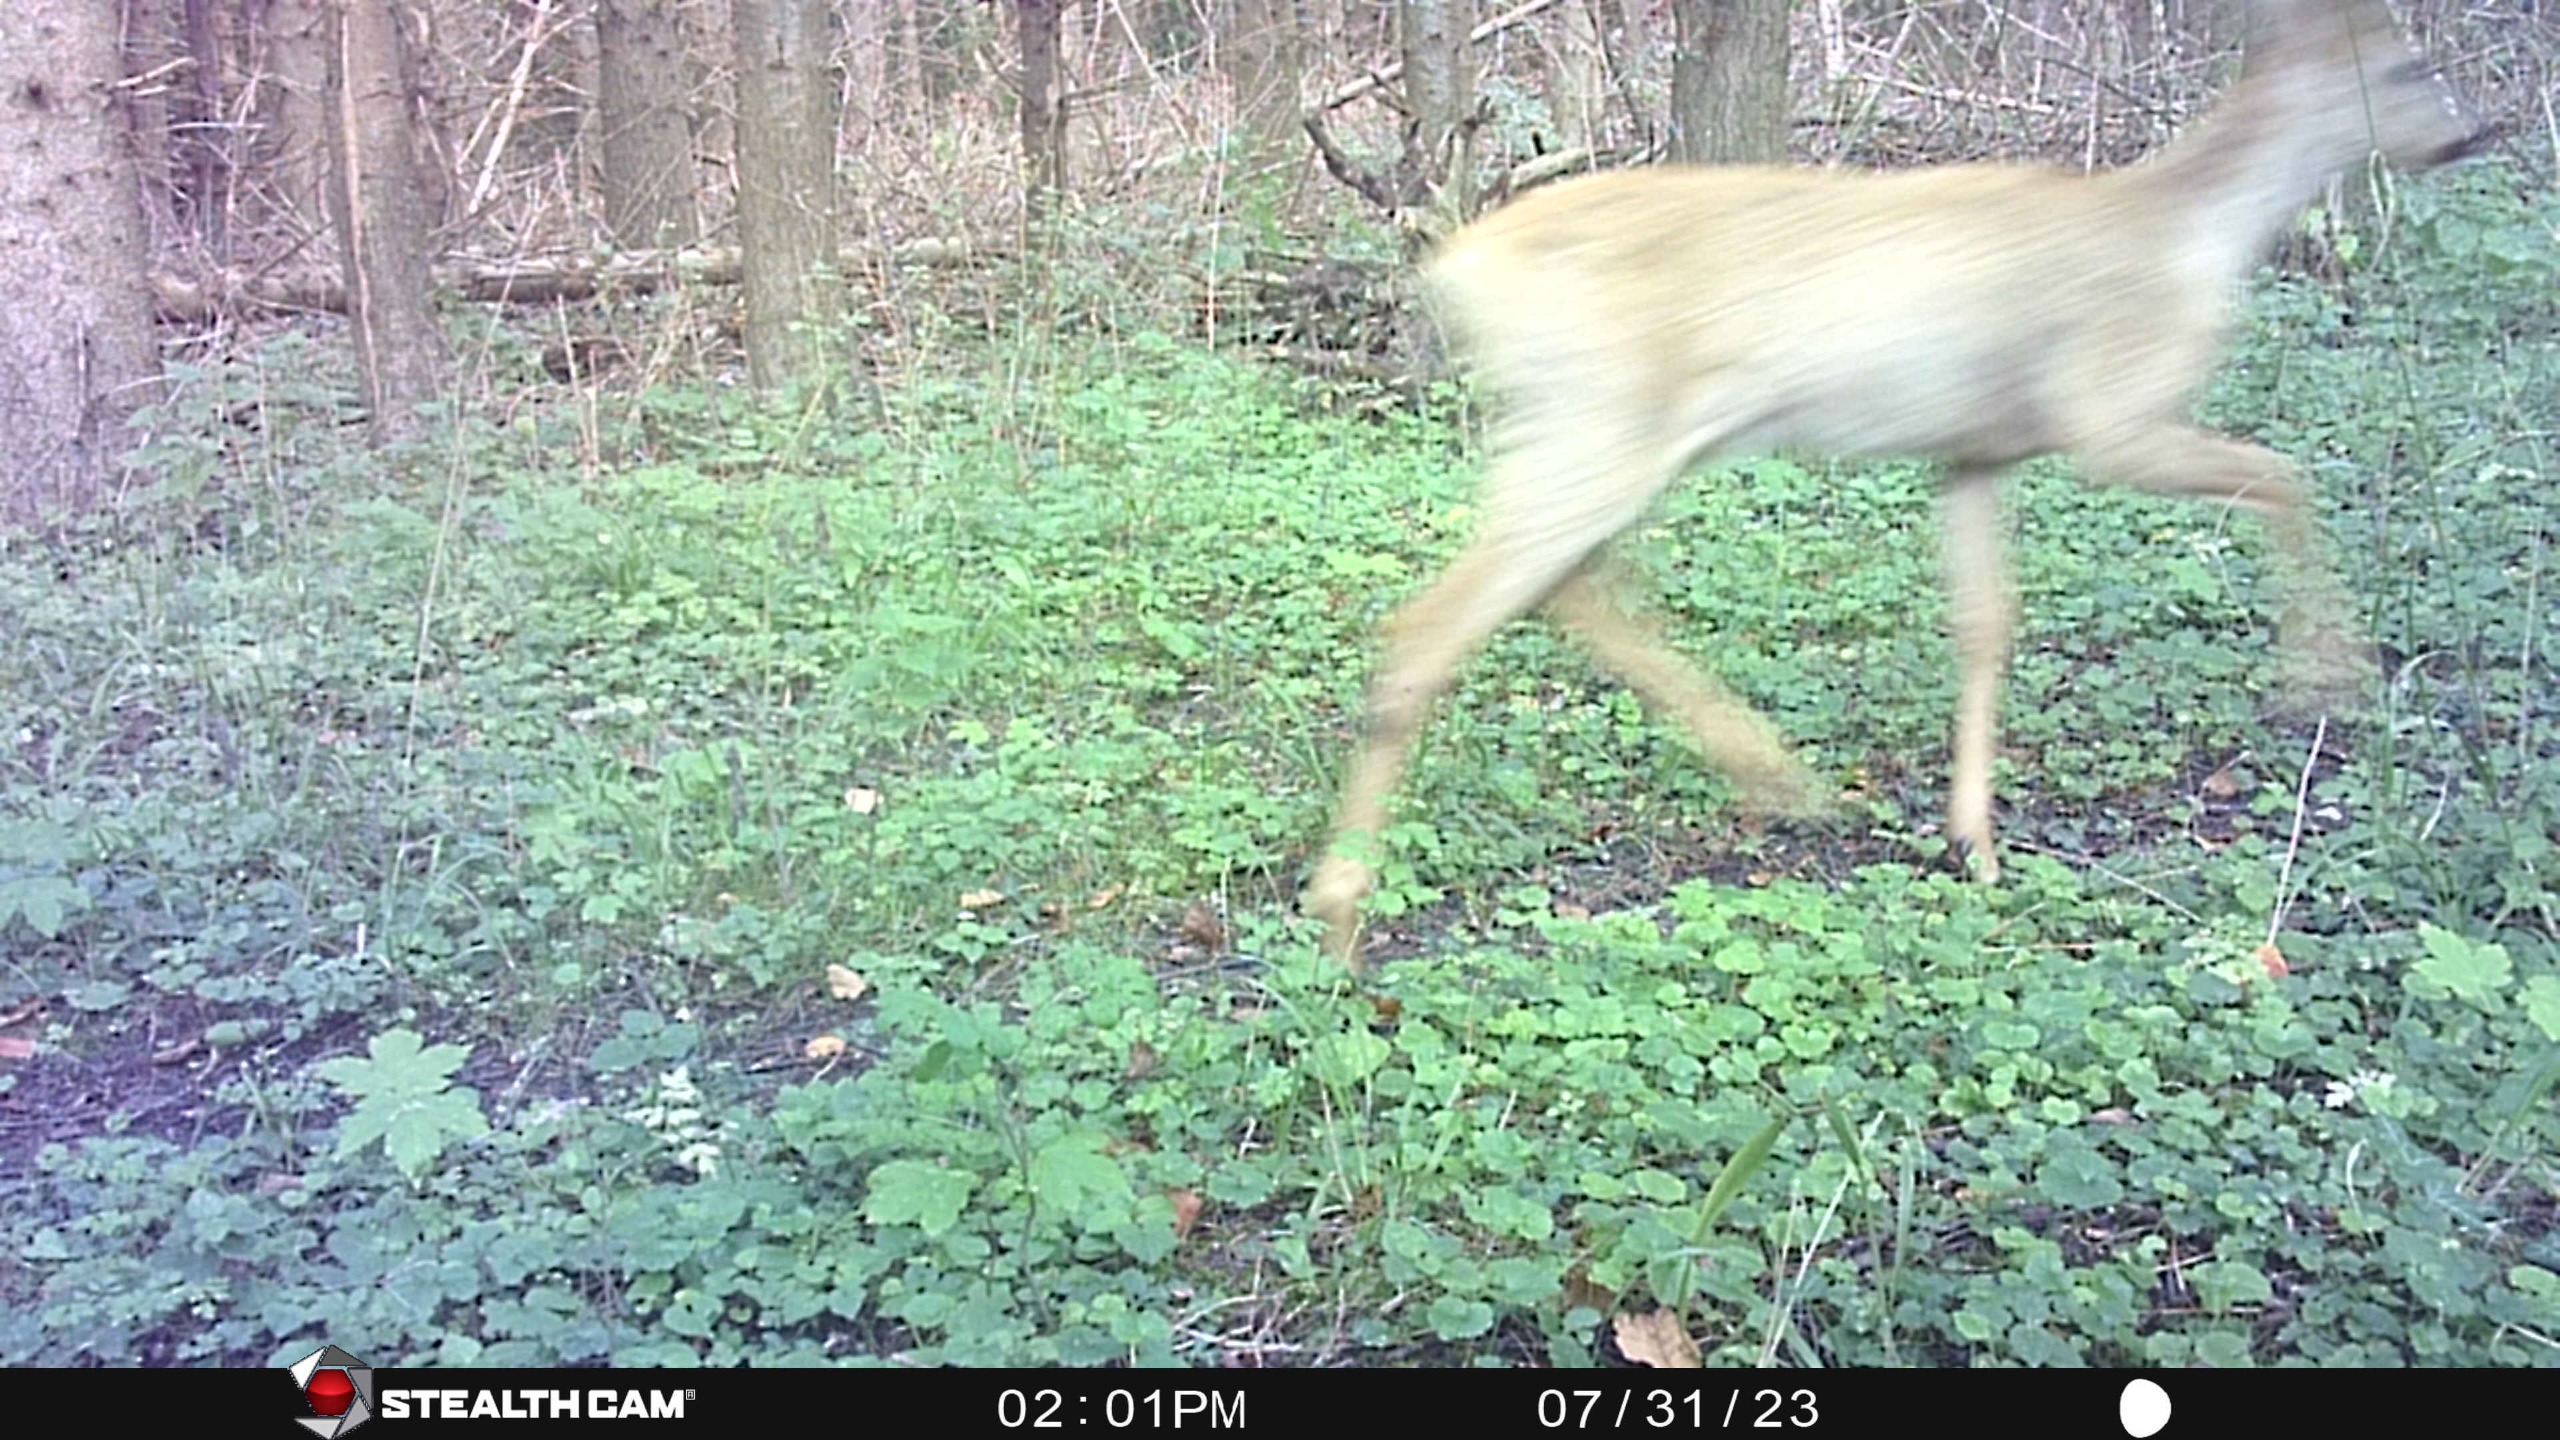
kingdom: Animalia
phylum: Chordata
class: Mammalia
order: Artiodactyla
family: Cervidae
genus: Capreolus
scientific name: Capreolus capreolus
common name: Rådyr
